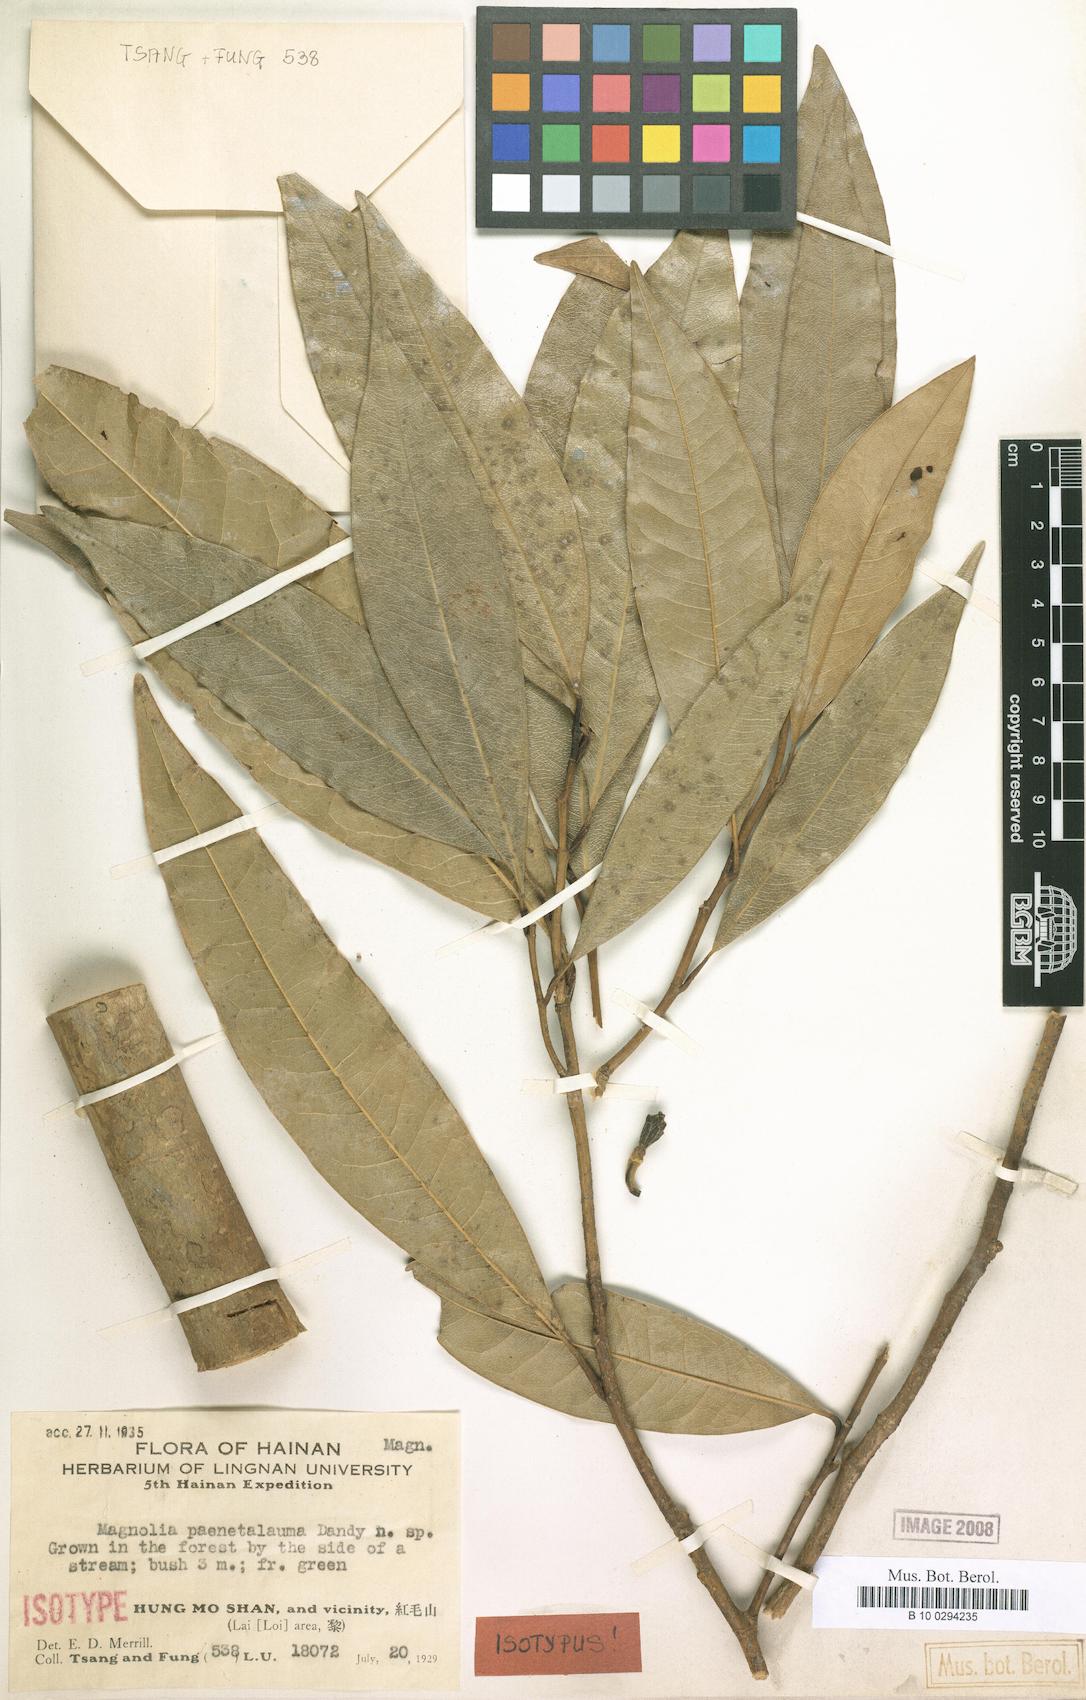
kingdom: Plantae
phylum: Tracheophyta
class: Magnoliopsida
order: Magnoliales
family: Magnoliaceae
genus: Magnolia
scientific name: Magnolia championii
